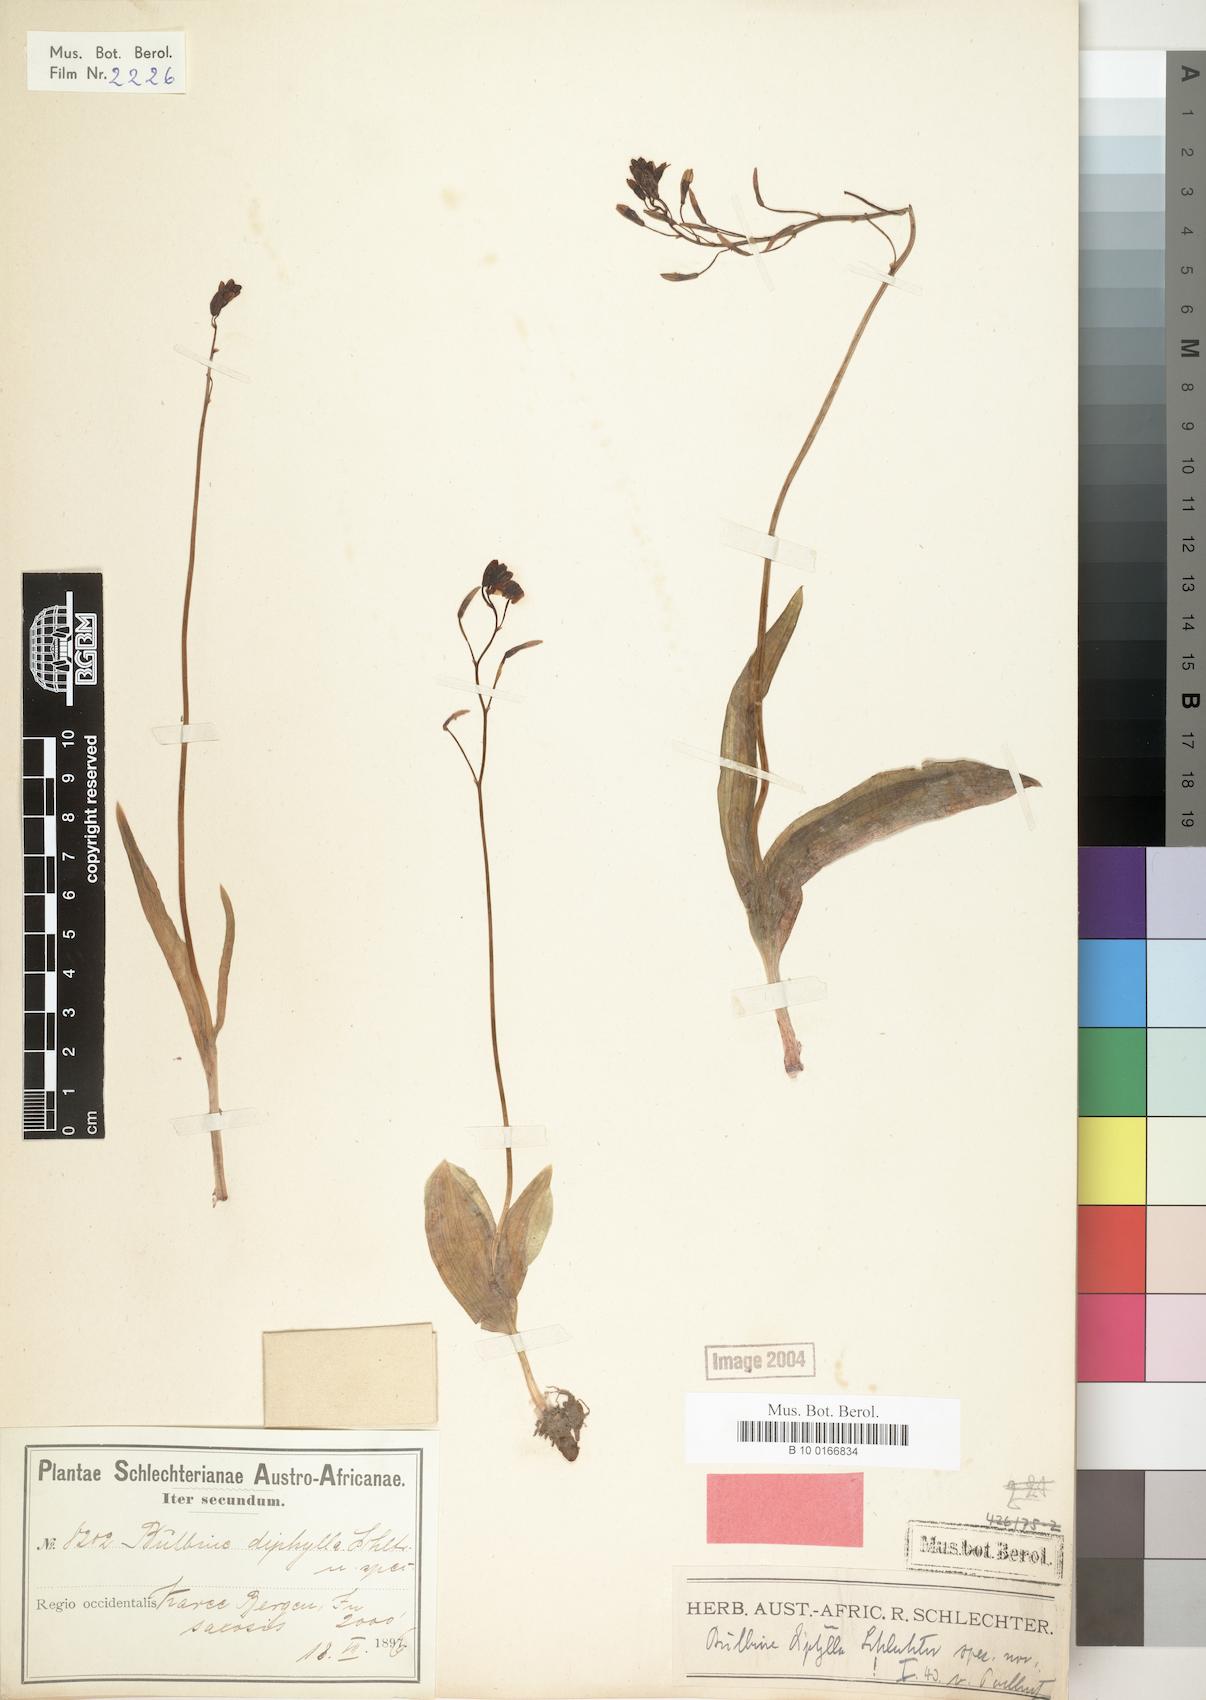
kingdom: Plantae
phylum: Tracheophyta
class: Liliopsida
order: Asparagales
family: Asphodelaceae
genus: Bulbine
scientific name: Bulbine diphylla
